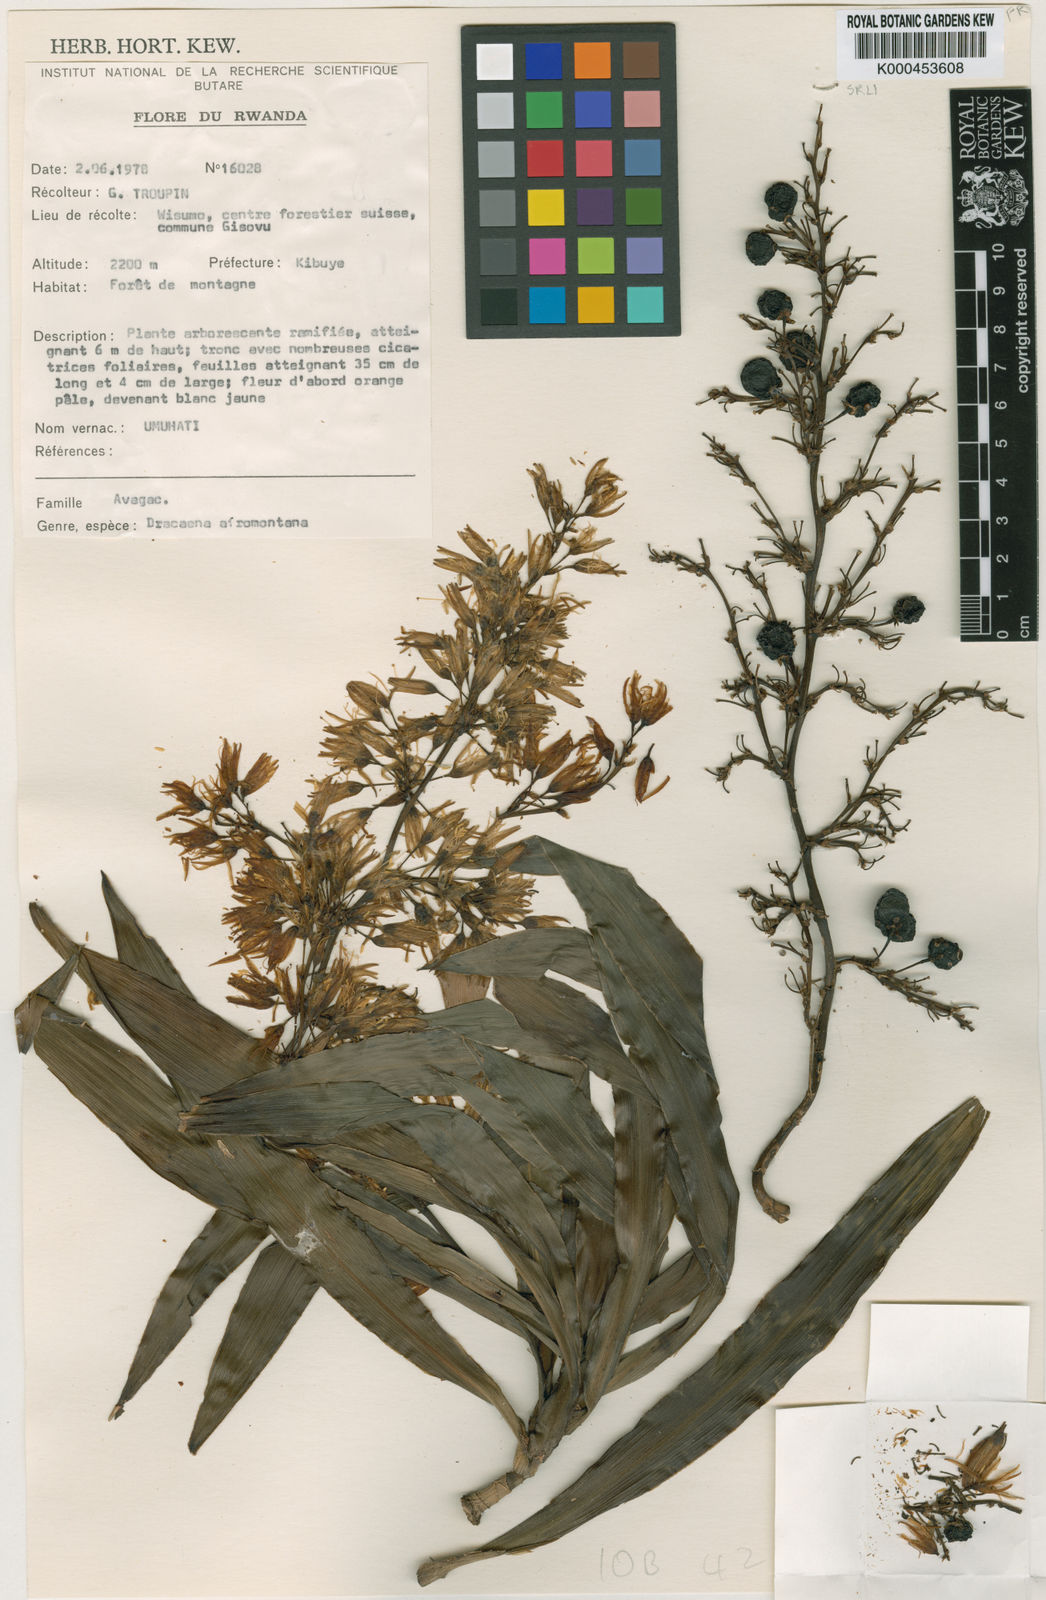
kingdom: Plantae
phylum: Tracheophyta
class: Liliopsida
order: Asparagales
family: Asparagaceae
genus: Dracaena
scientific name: Dracaena afromontana
